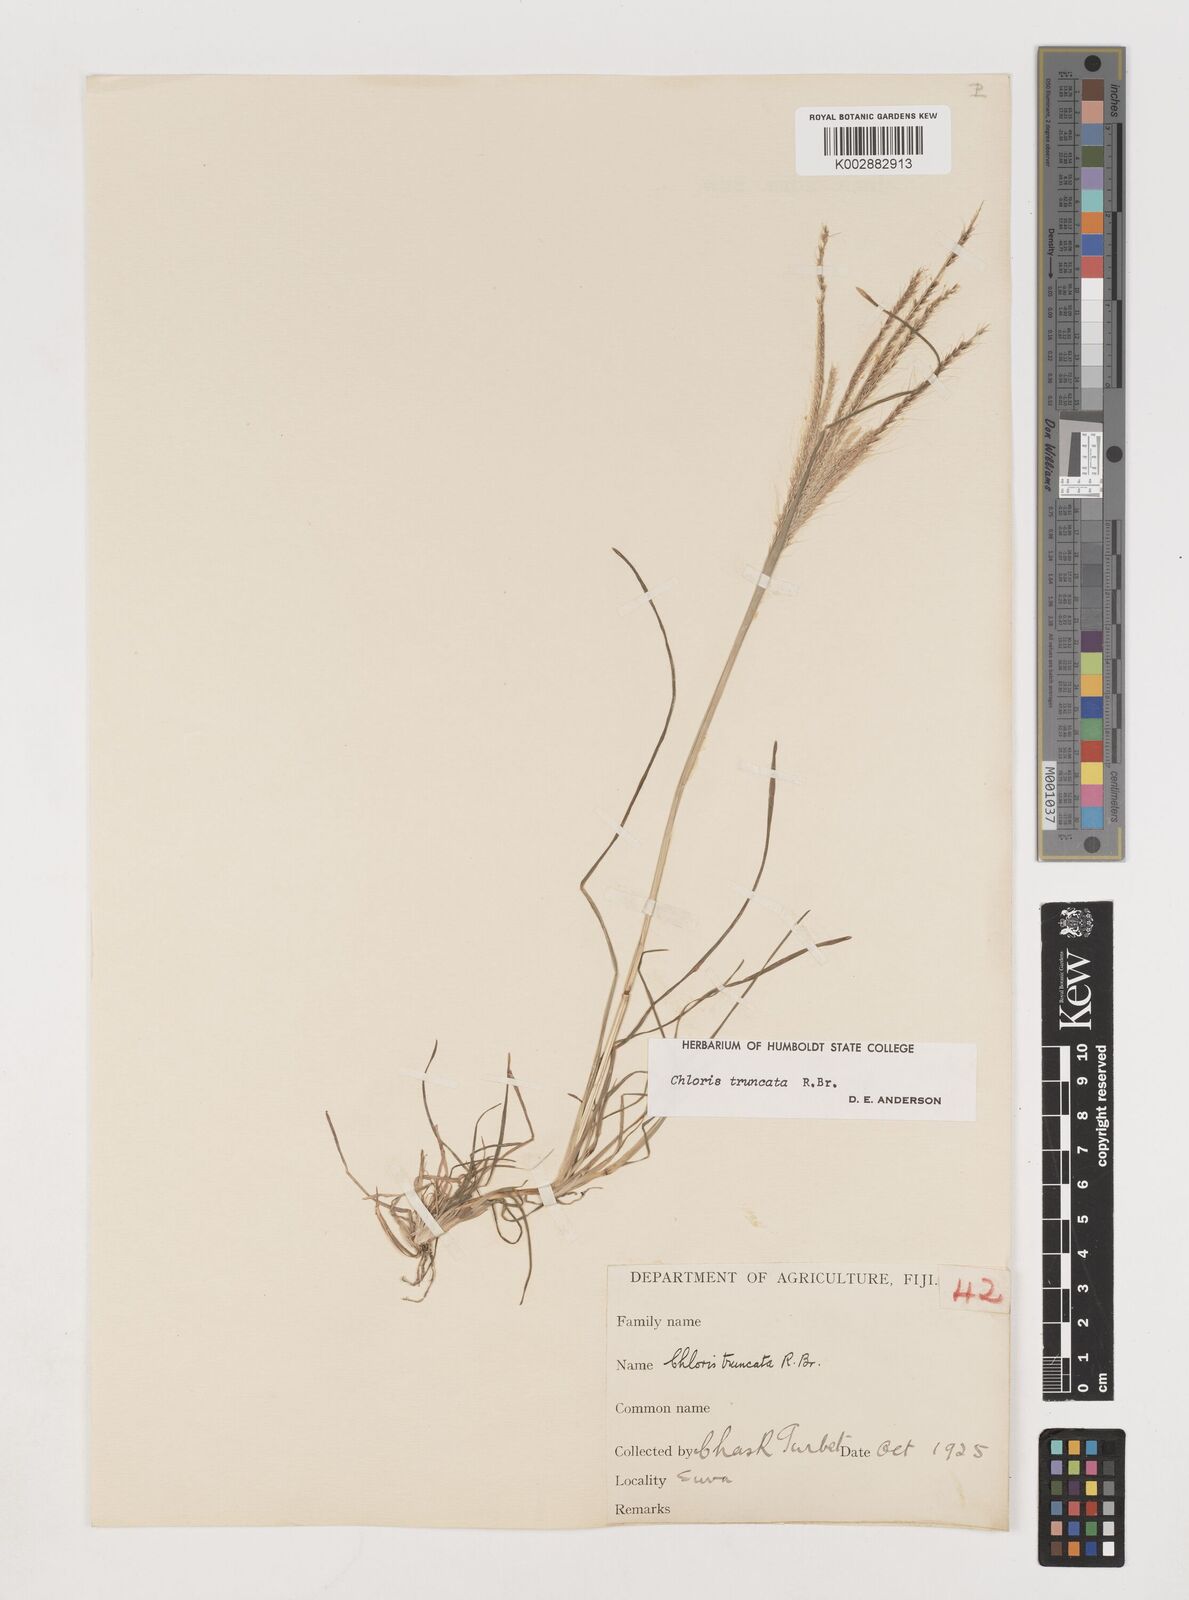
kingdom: Plantae
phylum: Tracheophyta
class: Liliopsida
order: Poales
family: Poaceae
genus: Chloris
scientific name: Chloris truncata
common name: Windmill-grass
